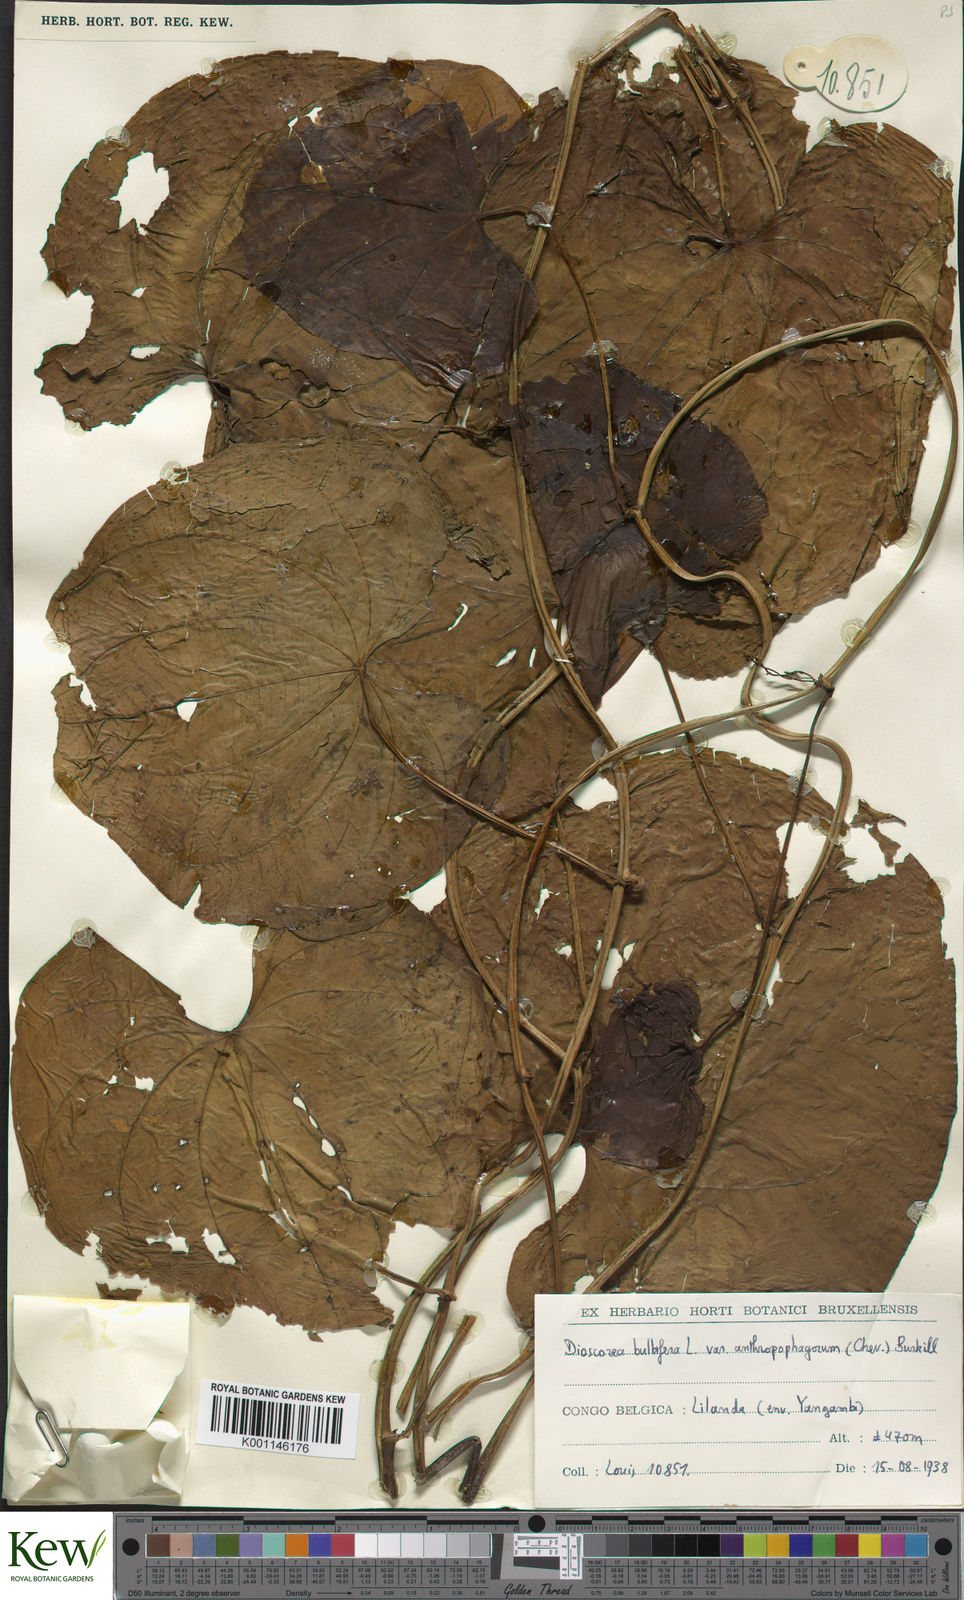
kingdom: Plantae
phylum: Tracheophyta
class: Liliopsida
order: Dioscoreales
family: Dioscoreaceae
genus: Dioscorea
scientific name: Dioscorea bulbifera
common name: Air yam
